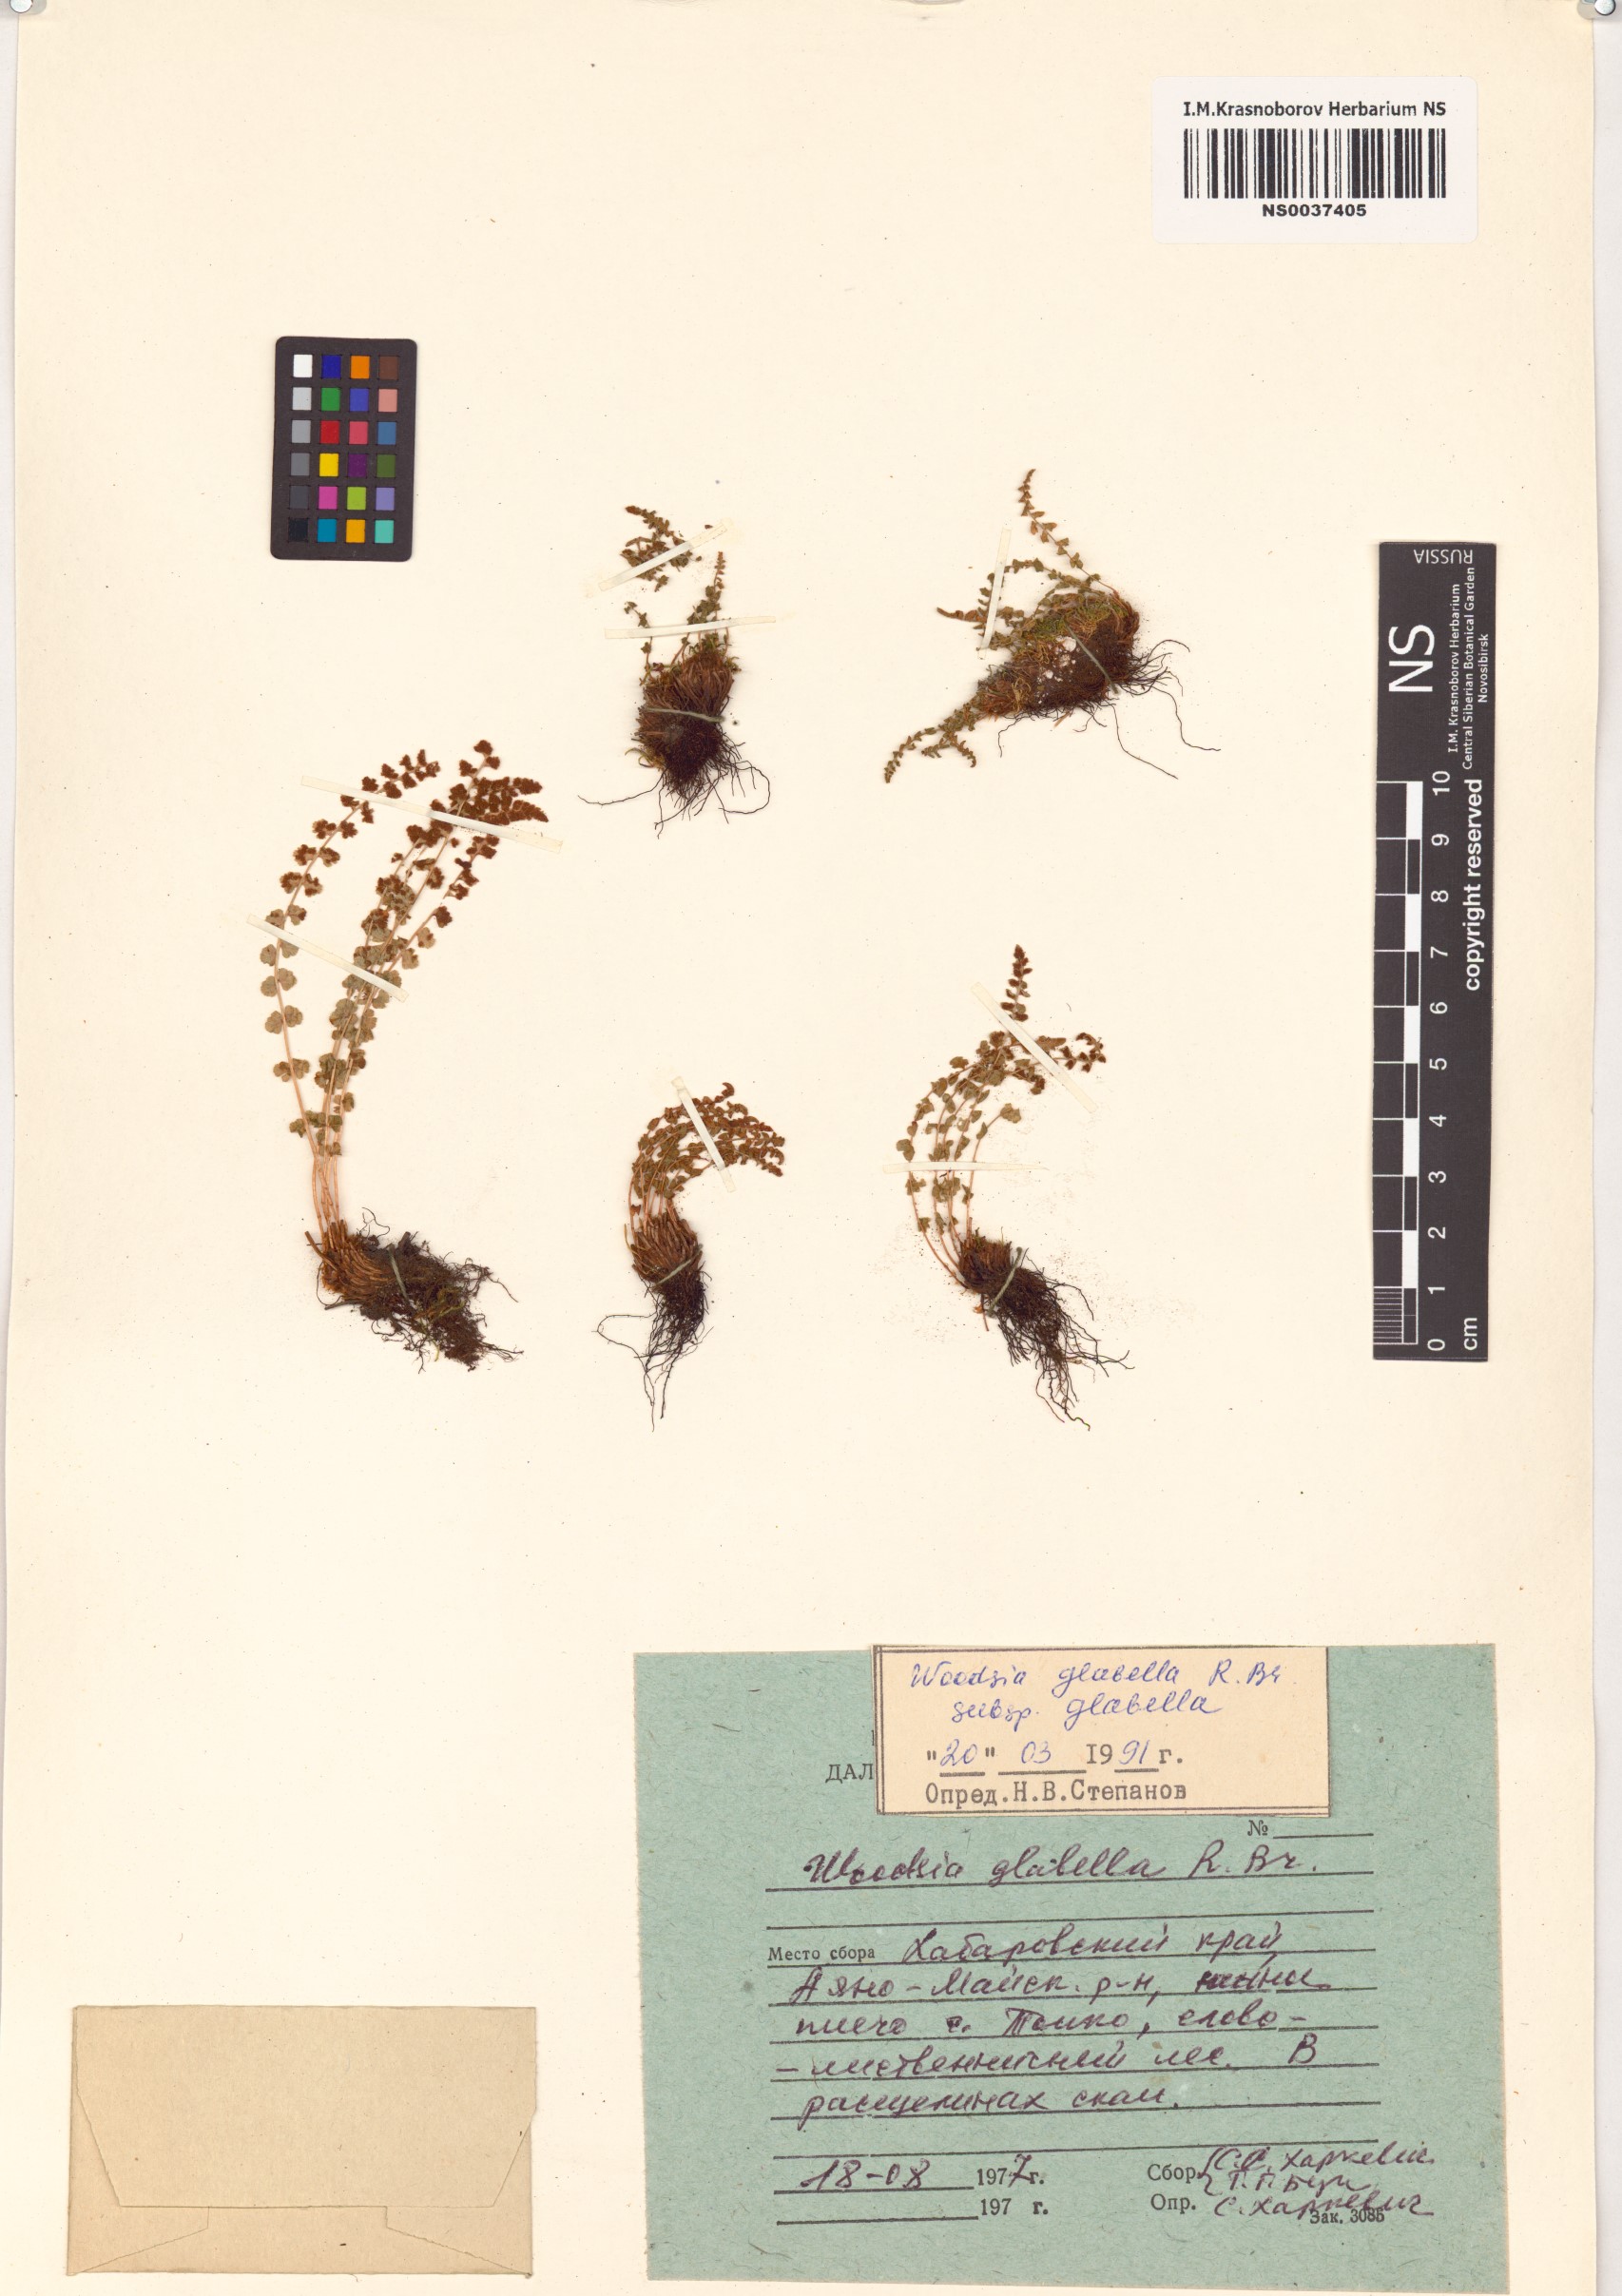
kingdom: Plantae
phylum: Tracheophyta
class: Polypodiopsida
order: Polypodiales
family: Woodsiaceae
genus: Woodsia
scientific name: Woodsia glabella
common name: Smooth woodsia
